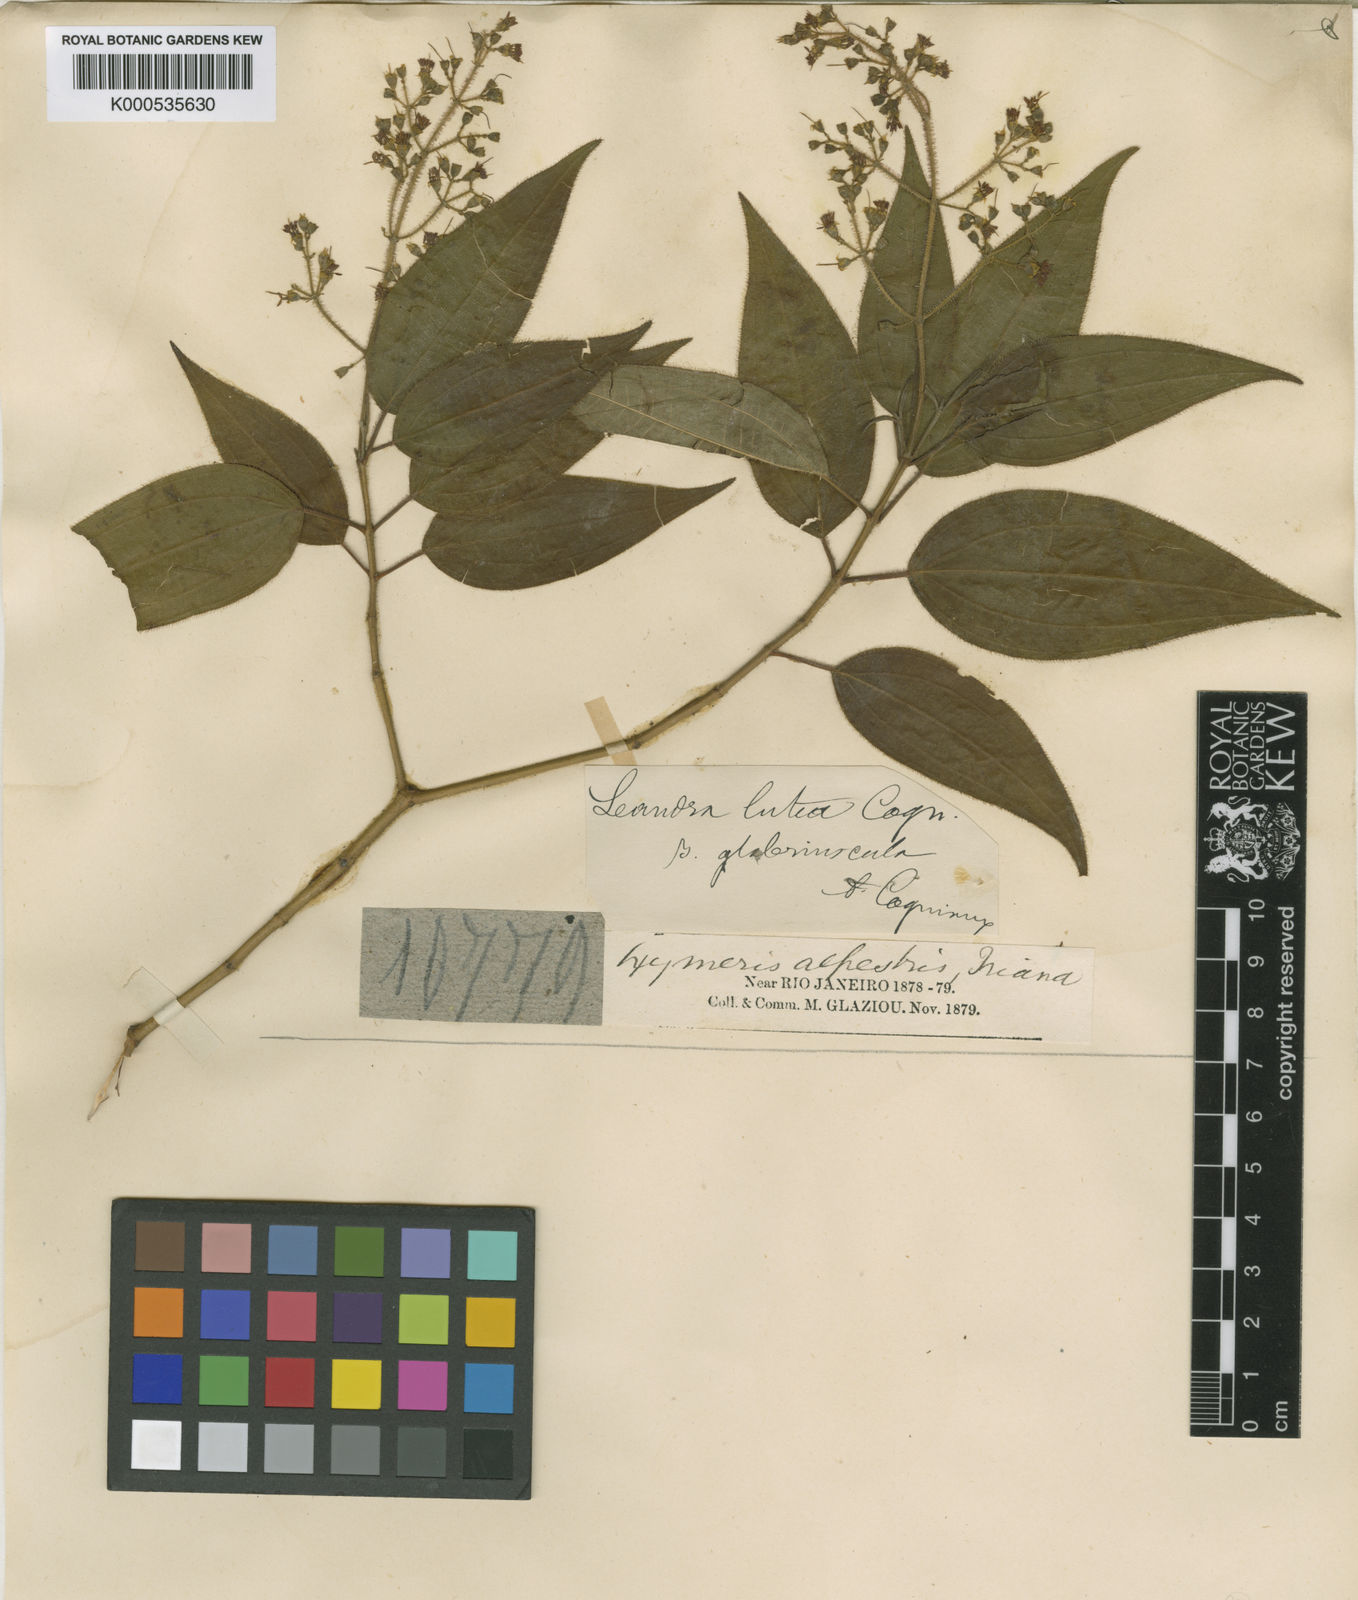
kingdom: Plantae
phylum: Tracheophyta
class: Magnoliopsida
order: Myrtales
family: Melastomataceae
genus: Miconia
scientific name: Miconia lutea
